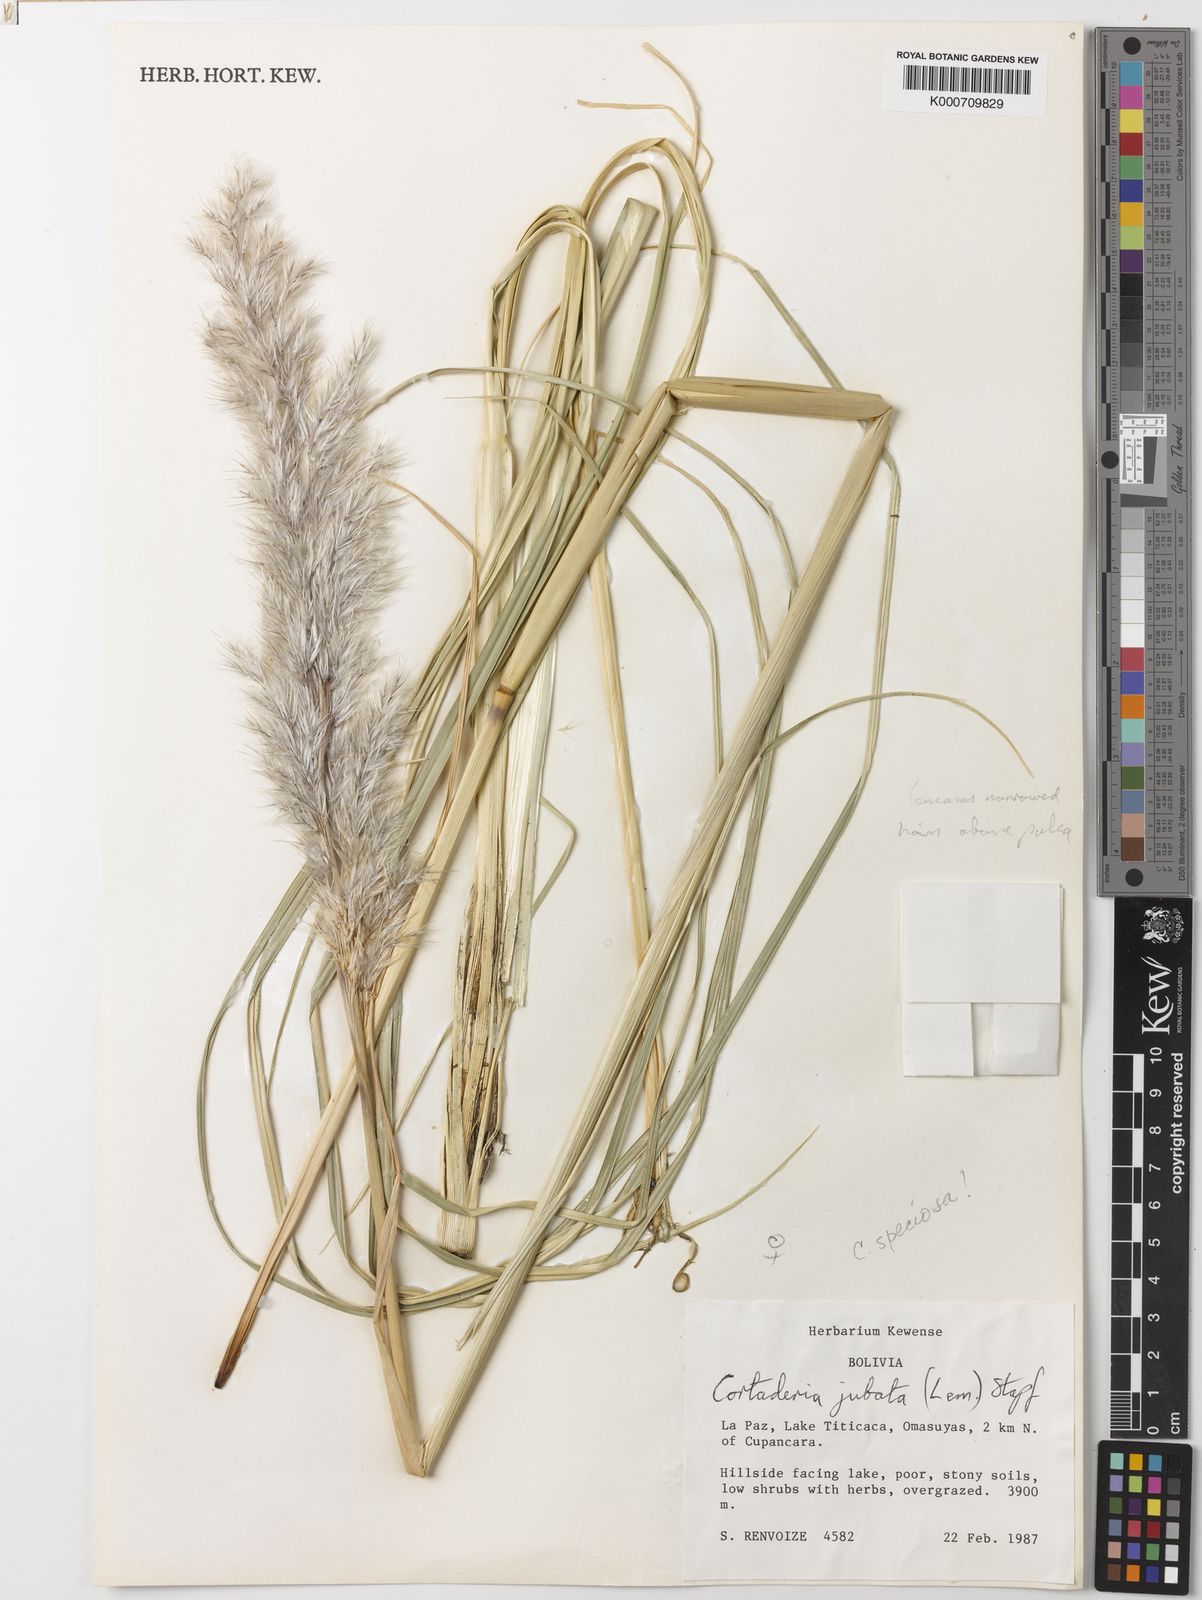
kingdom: Plantae
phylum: Tracheophyta
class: Liliopsida
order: Poales
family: Poaceae
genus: Cortaderia
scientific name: Cortaderia speciosa
